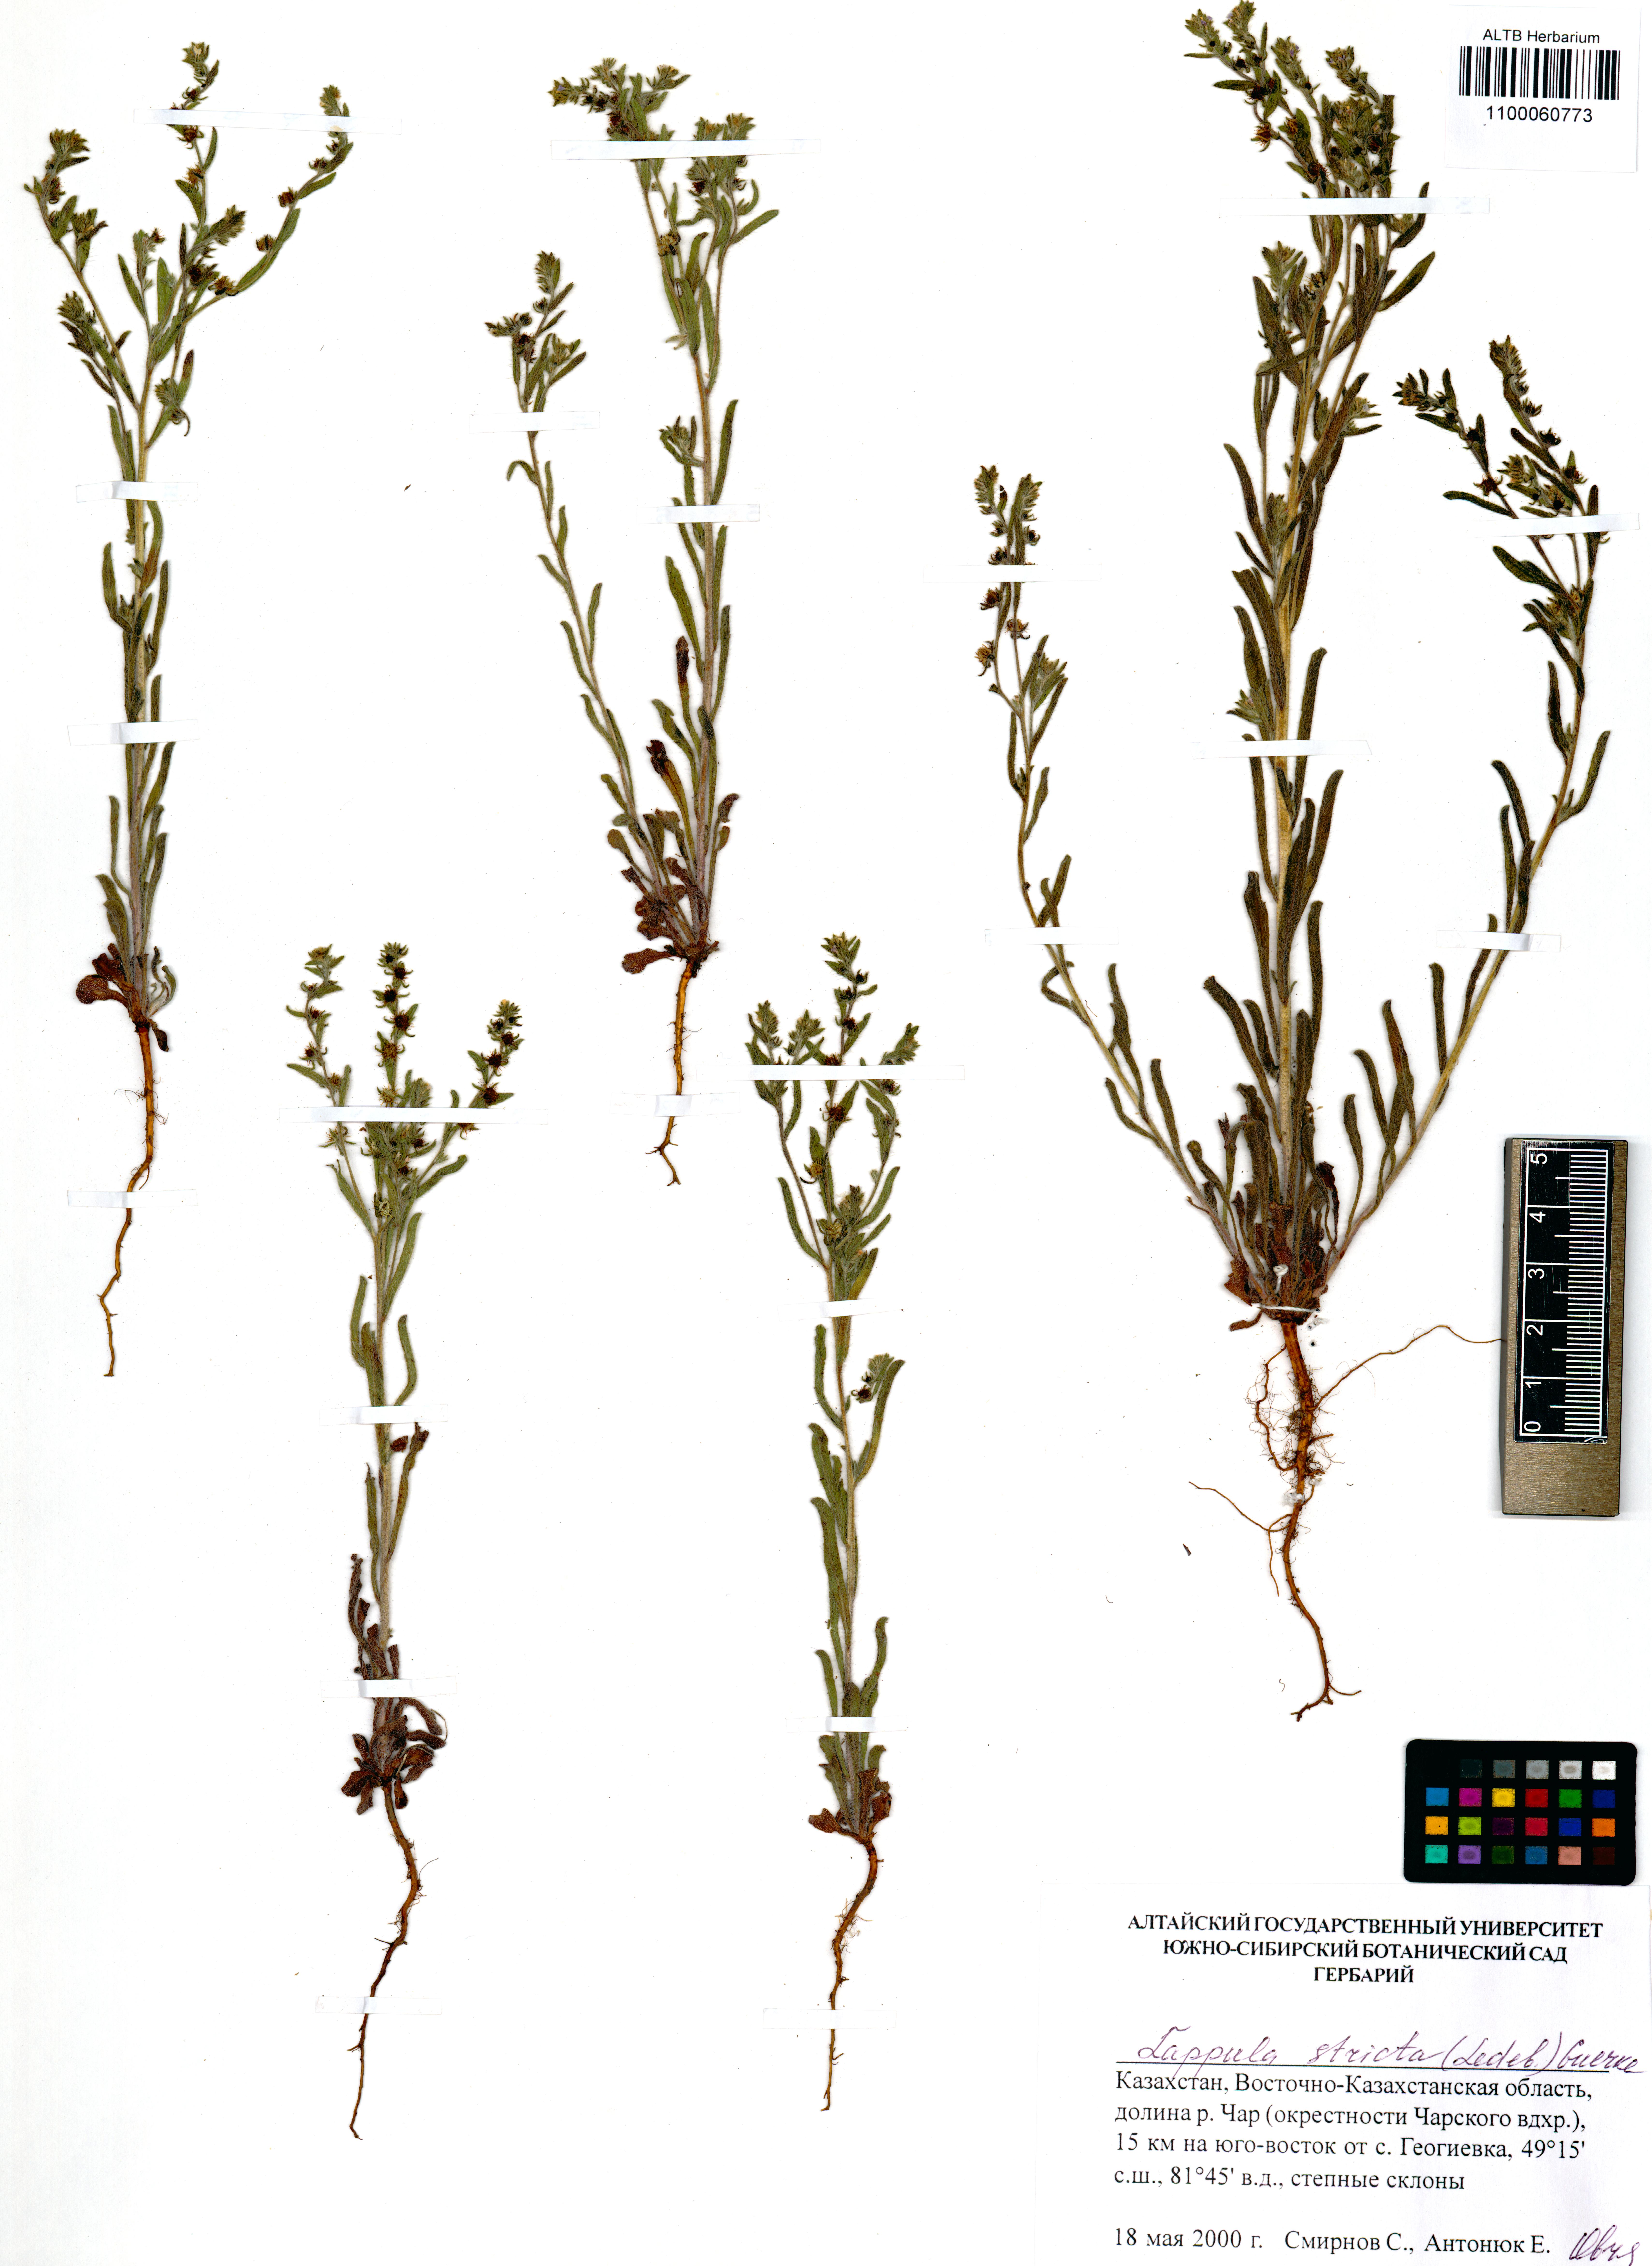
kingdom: Plantae
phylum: Tracheophyta
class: Magnoliopsida
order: Boraginales
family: Boraginaceae
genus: Lappula
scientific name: Lappula stricta
